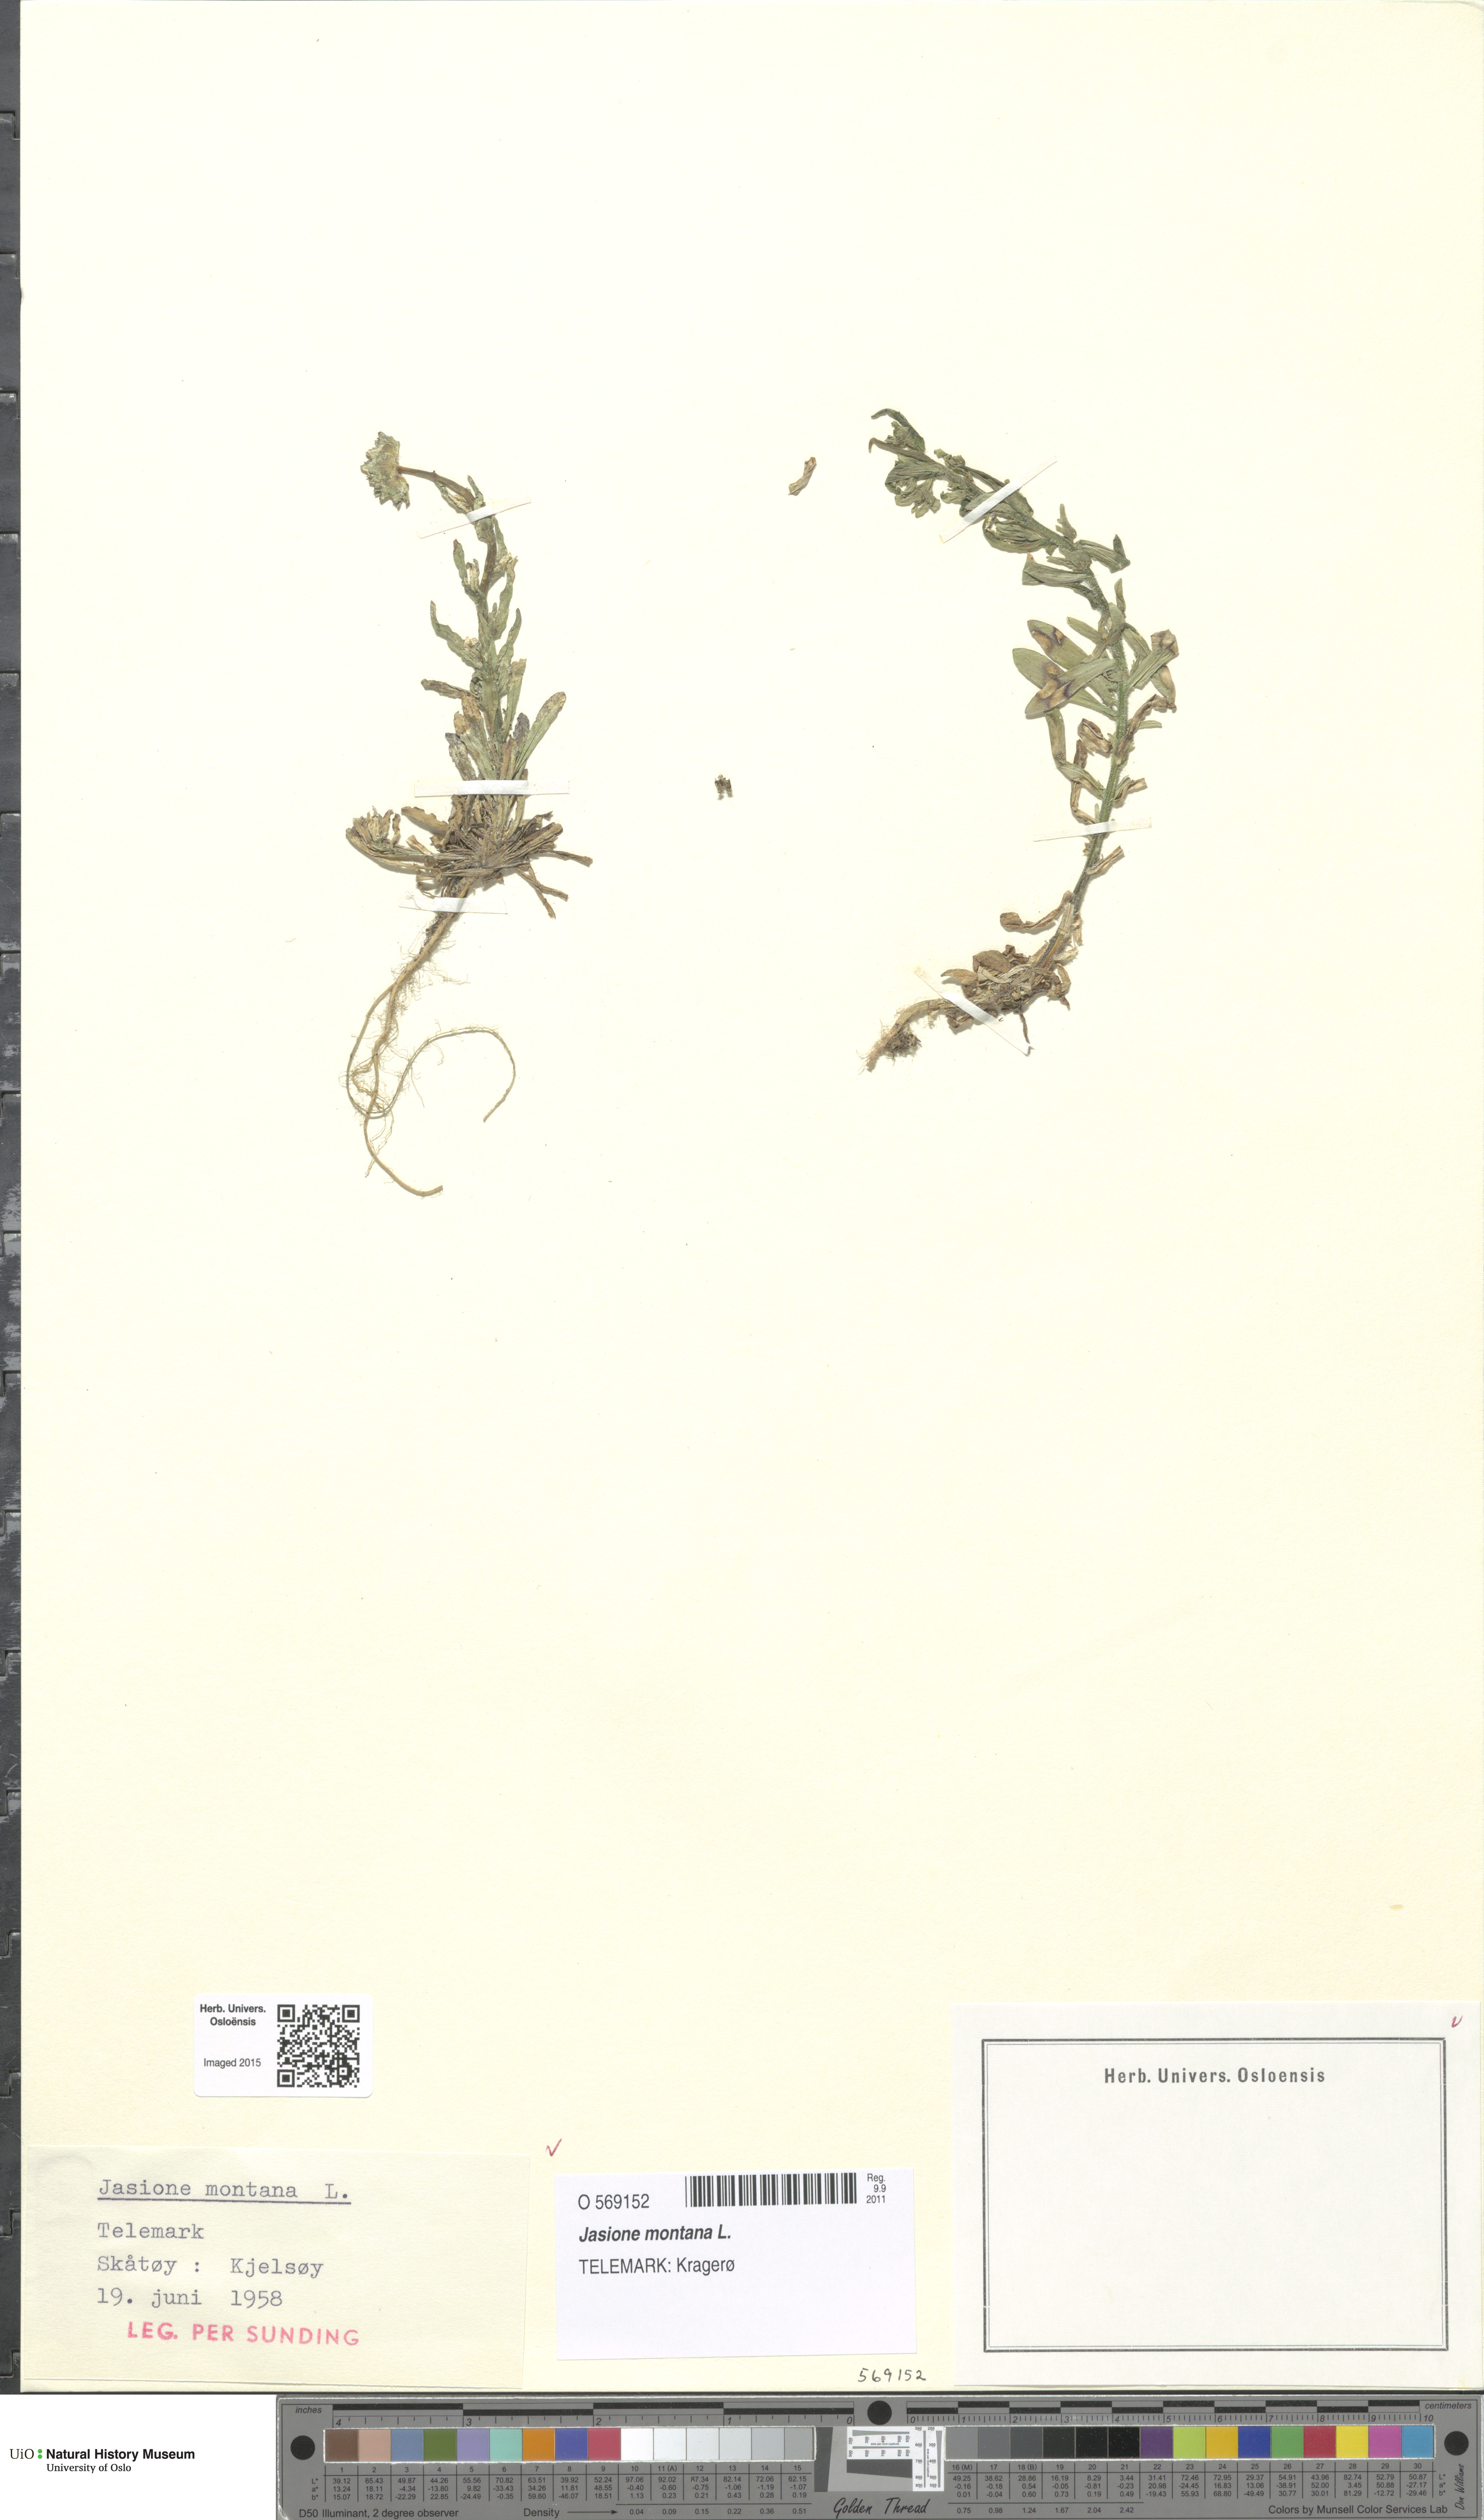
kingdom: Plantae
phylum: Tracheophyta
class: Magnoliopsida
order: Asterales
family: Campanulaceae
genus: Jasione
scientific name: Jasione montana
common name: Sheep's-bit
